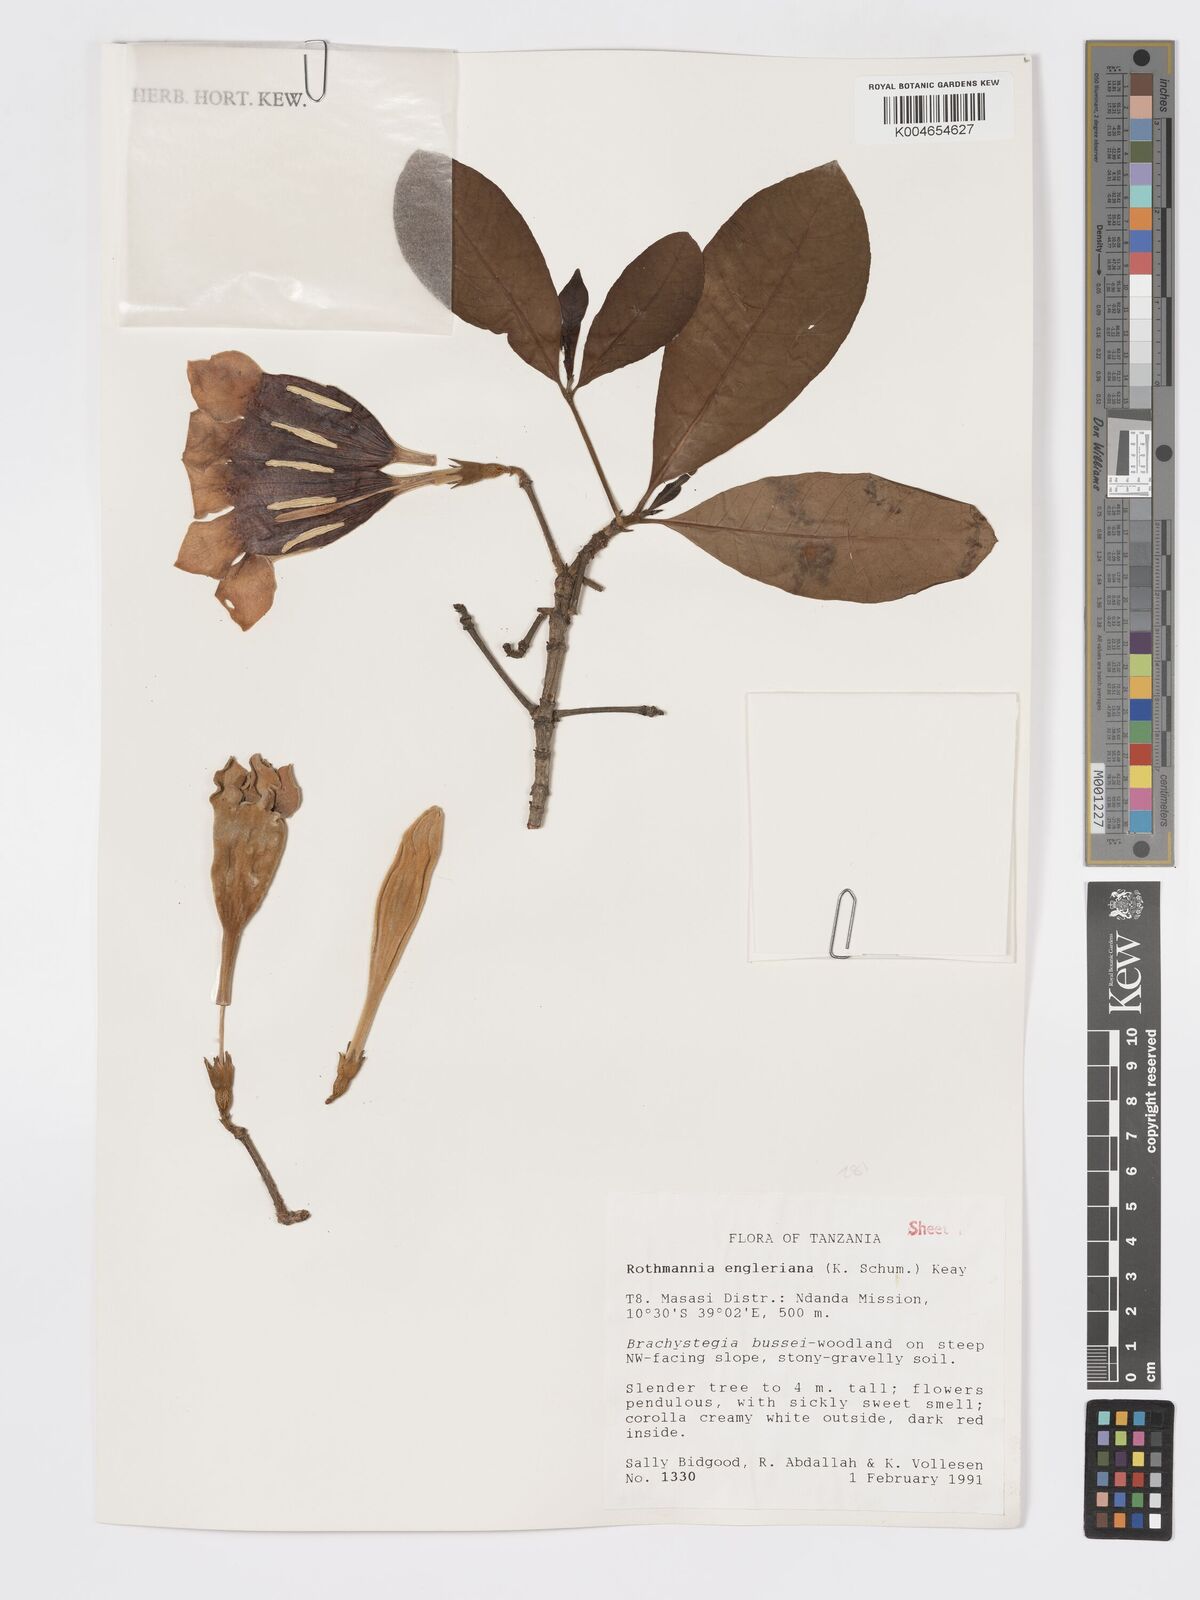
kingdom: Plantae
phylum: Tracheophyta
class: Magnoliopsida
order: Gentianales
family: Rubiaceae
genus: Rothmannia
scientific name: Rothmannia engleriana
